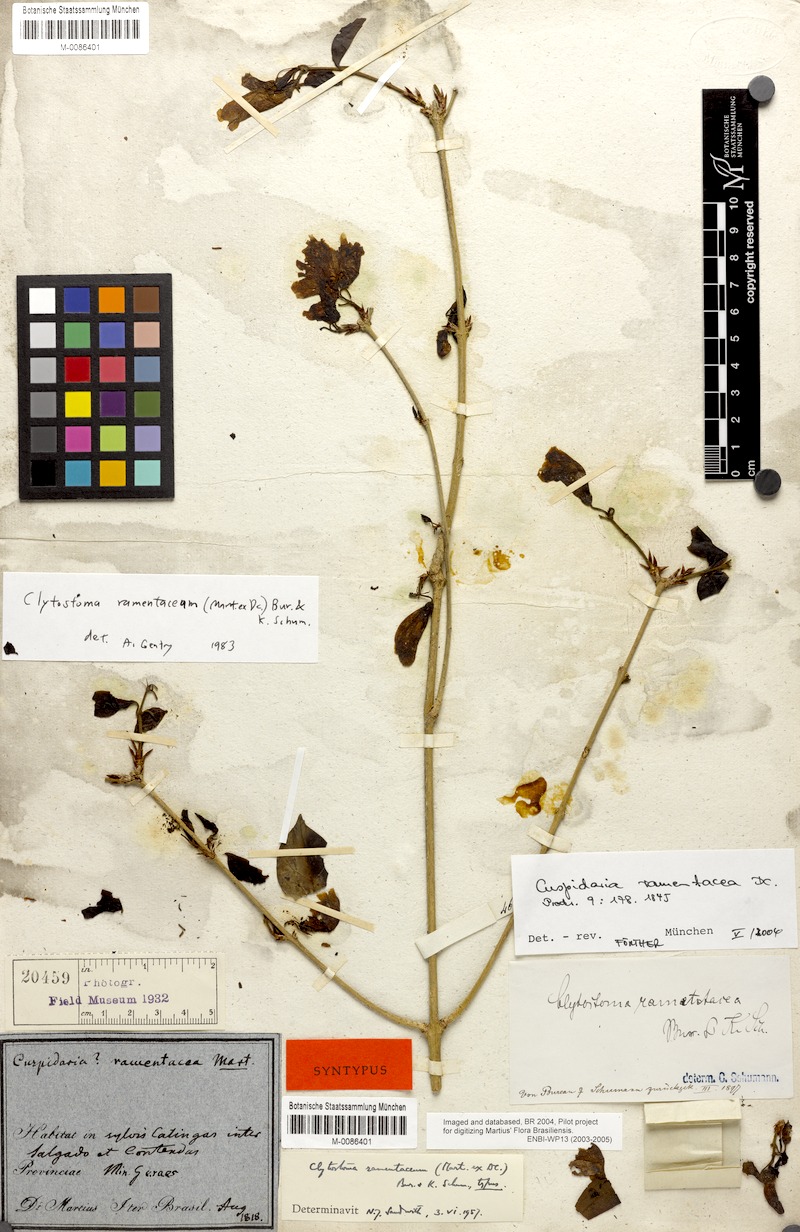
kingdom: Plantae
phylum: Tracheophyta
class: Magnoliopsida
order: Lamiales
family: Bignoniaceae
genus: Bignonia
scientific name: Bignonia ramantacea
